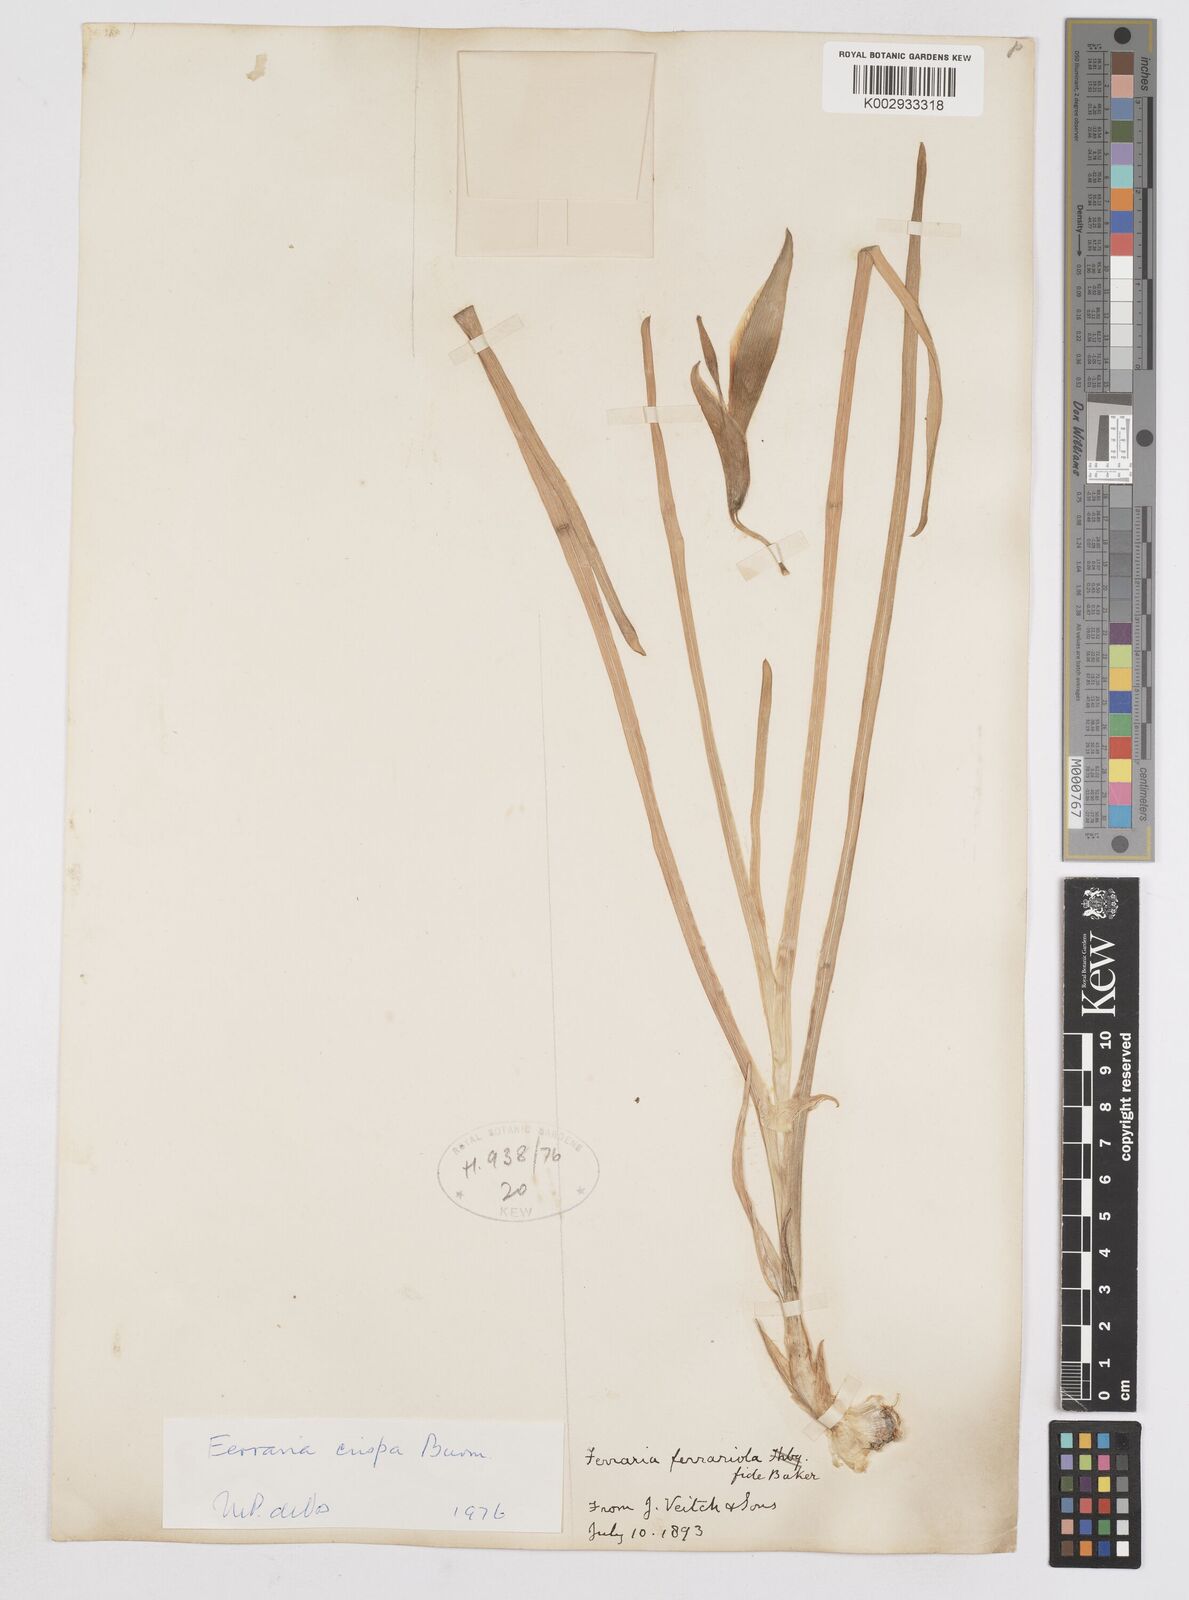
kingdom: Plantae
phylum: Tracheophyta
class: Liliopsida
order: Asparagales
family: Iridaceae
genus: Ferraria
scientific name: Ferraria crispa
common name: Black-flag
